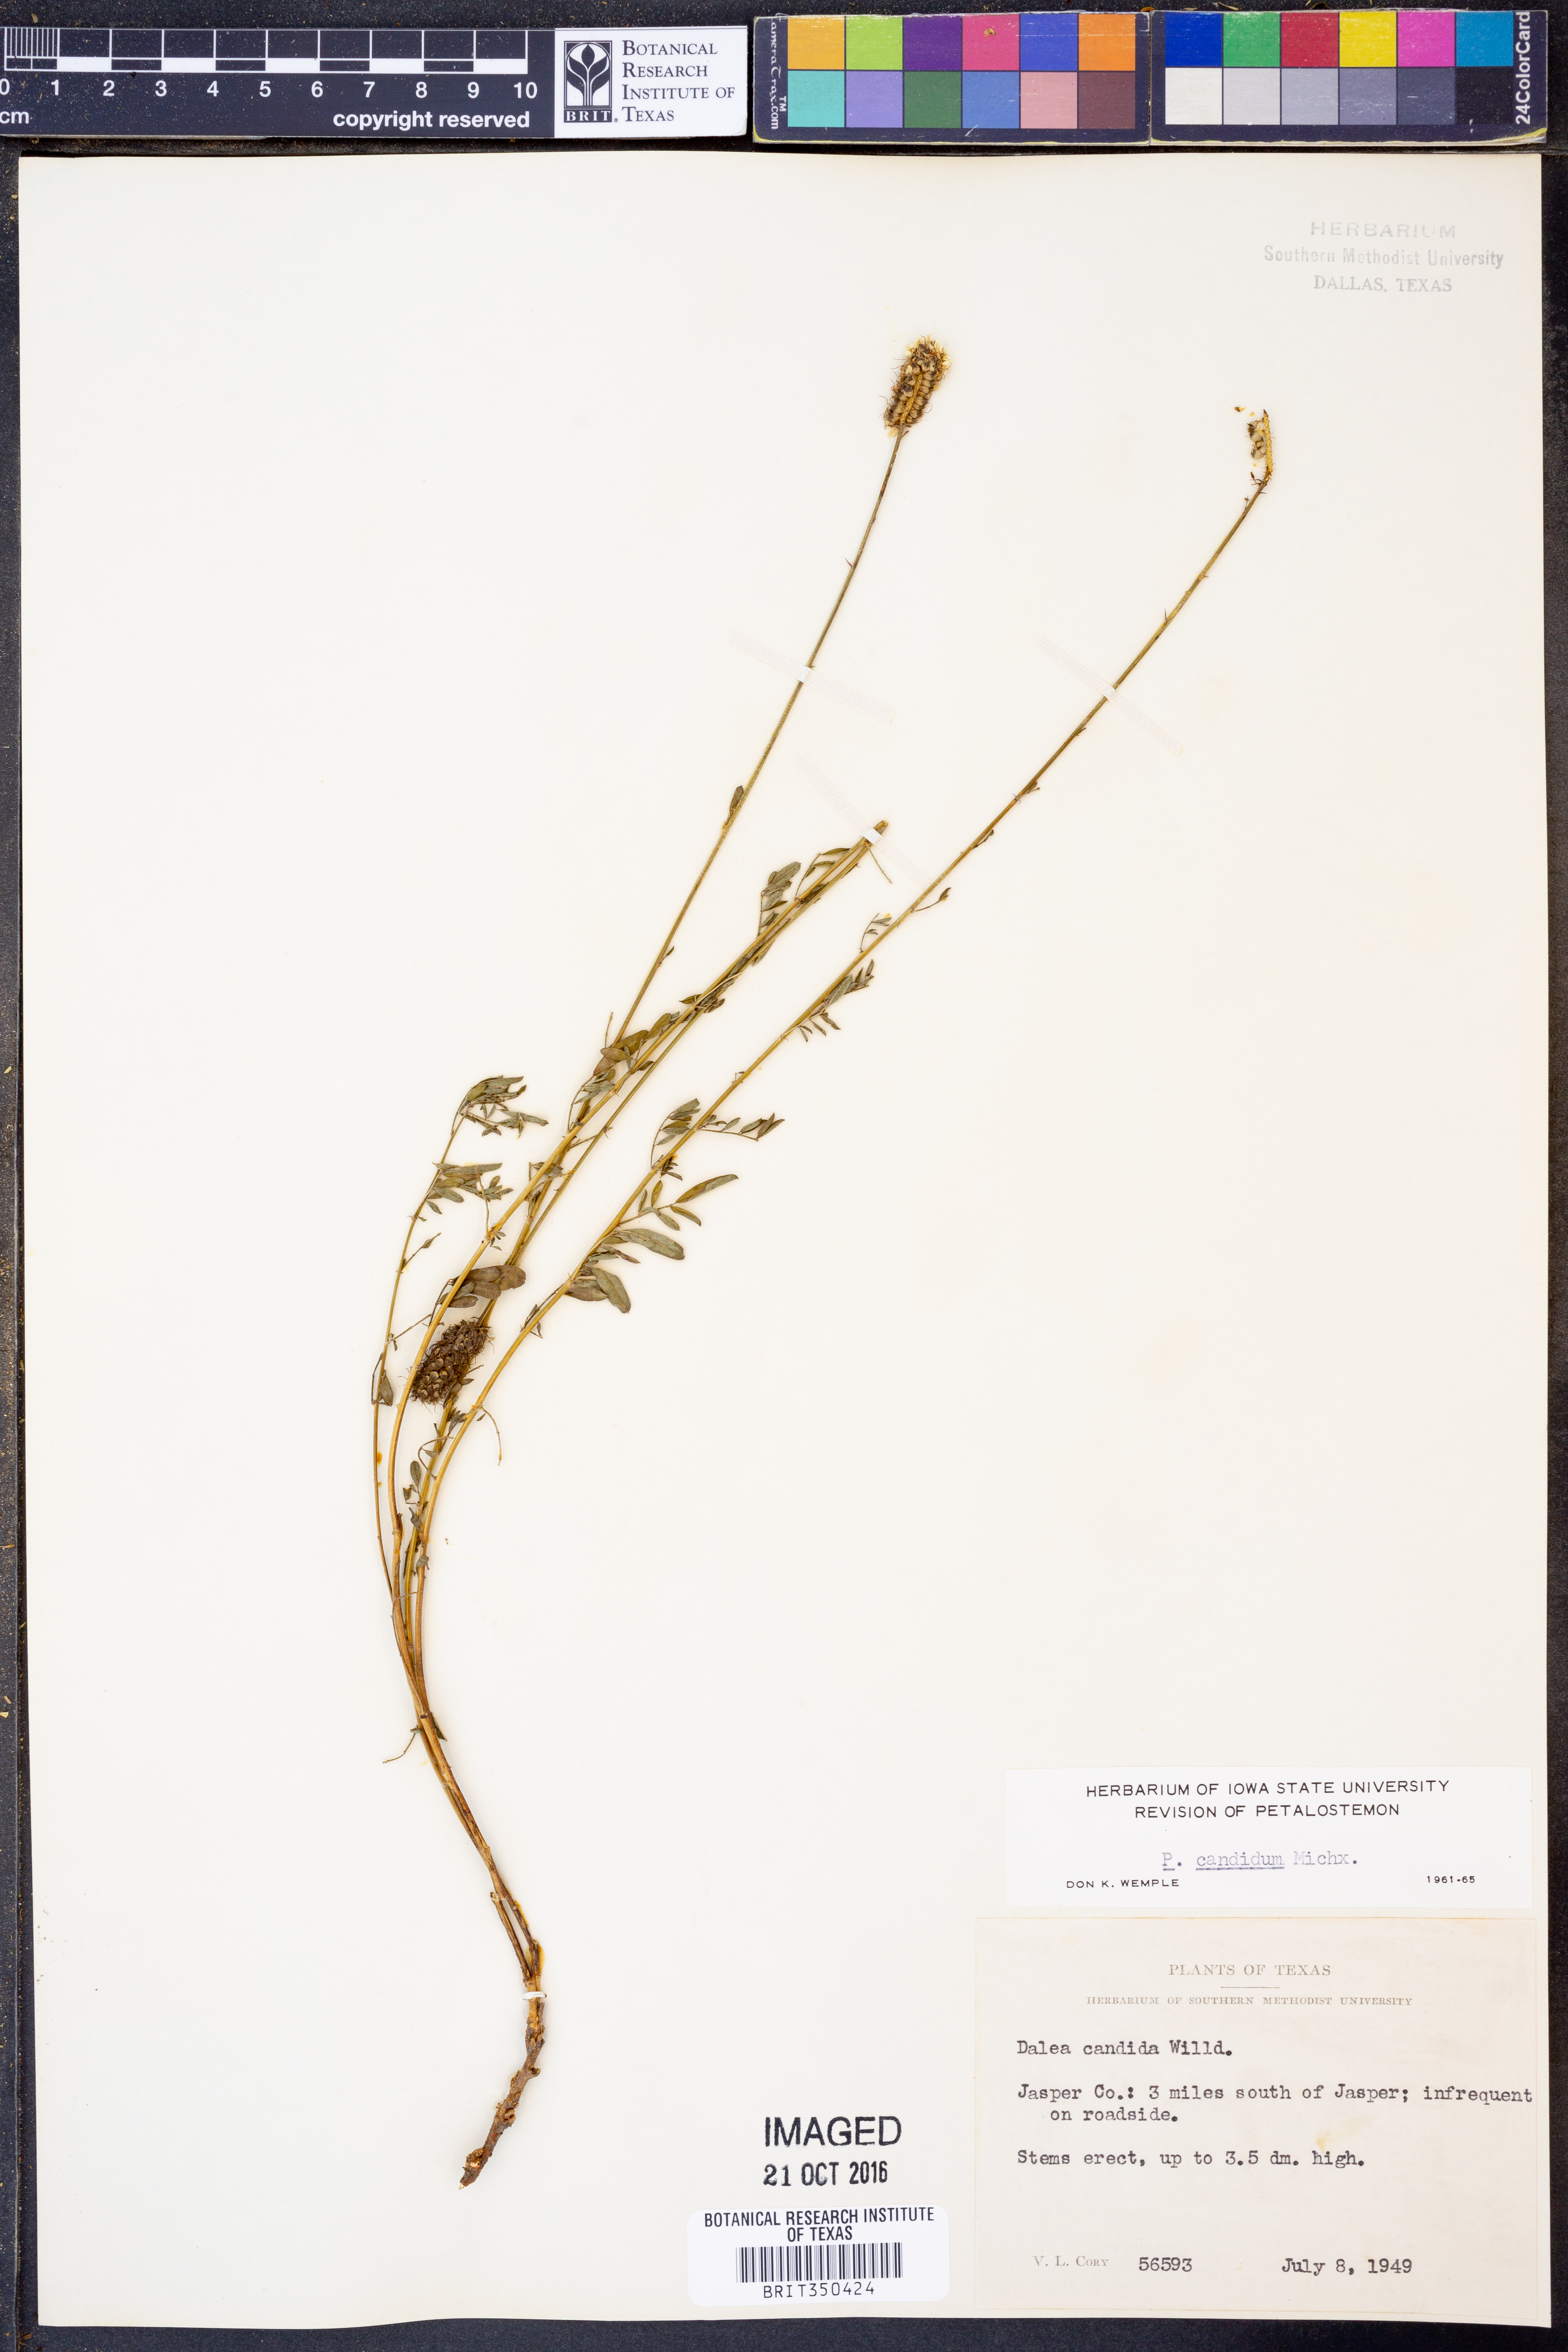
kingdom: Plantae
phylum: Tracheophyta
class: Magnoliopsida
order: Fabales
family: Fabaceae
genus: Dalea
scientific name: Dalea candida
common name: White prairie-clover
